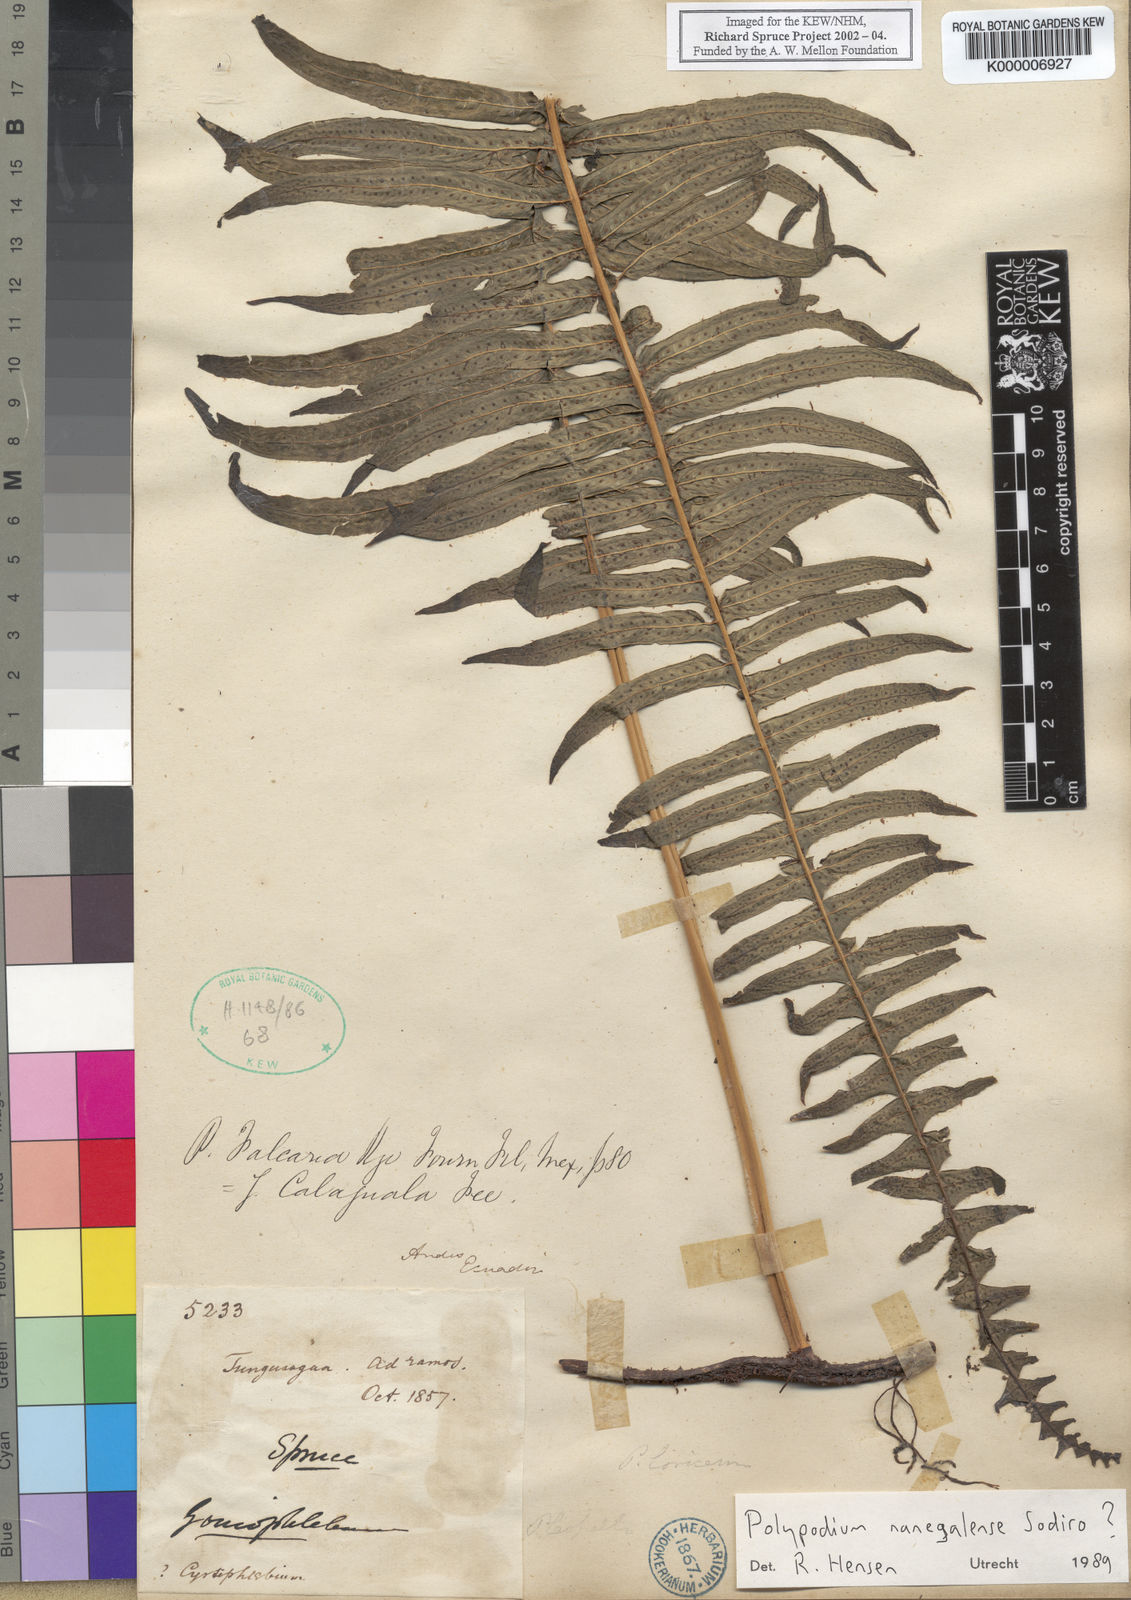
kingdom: Plantae
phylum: Tracheophyta
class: Polypodiopsida
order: Polypodiales
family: Polypodiaceae
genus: Serpocaulon
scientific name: Serpocaulon nanegalense
